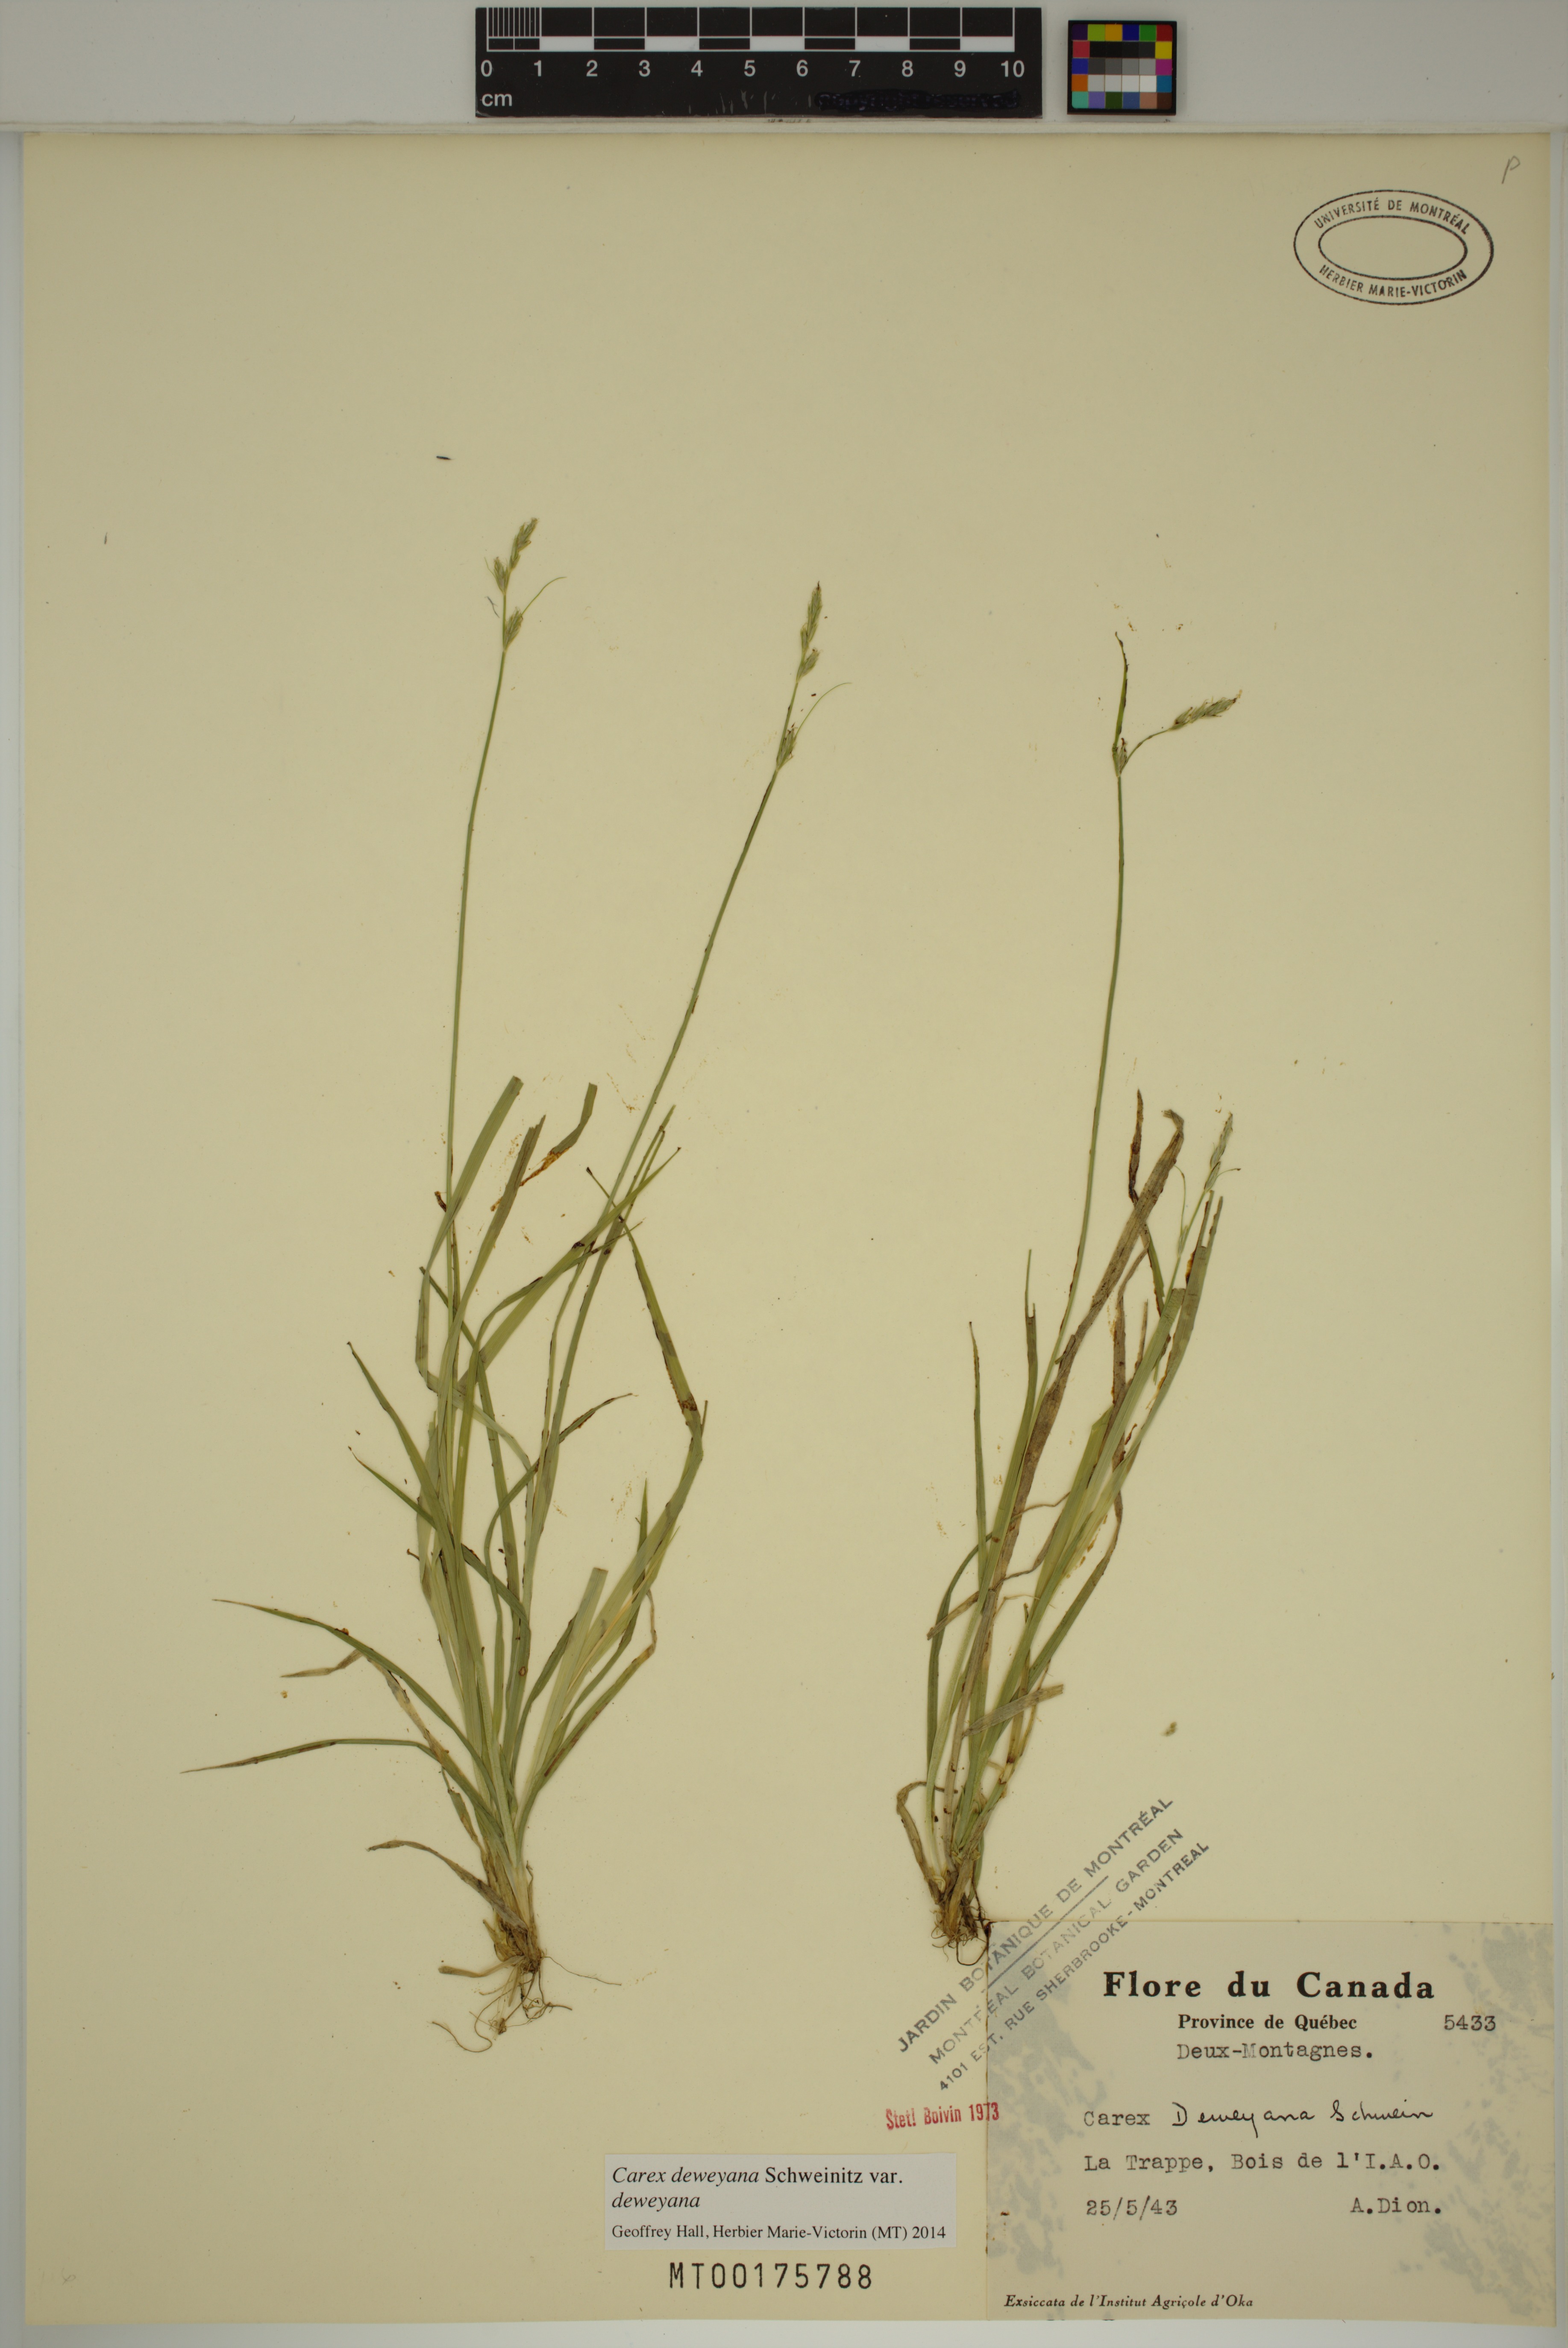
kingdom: Plantae
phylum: Tracheophyta
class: Liliopsida
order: Poales
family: Cyperaceae
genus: Carex
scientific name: Carex deweyana
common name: Dewey's sedge
